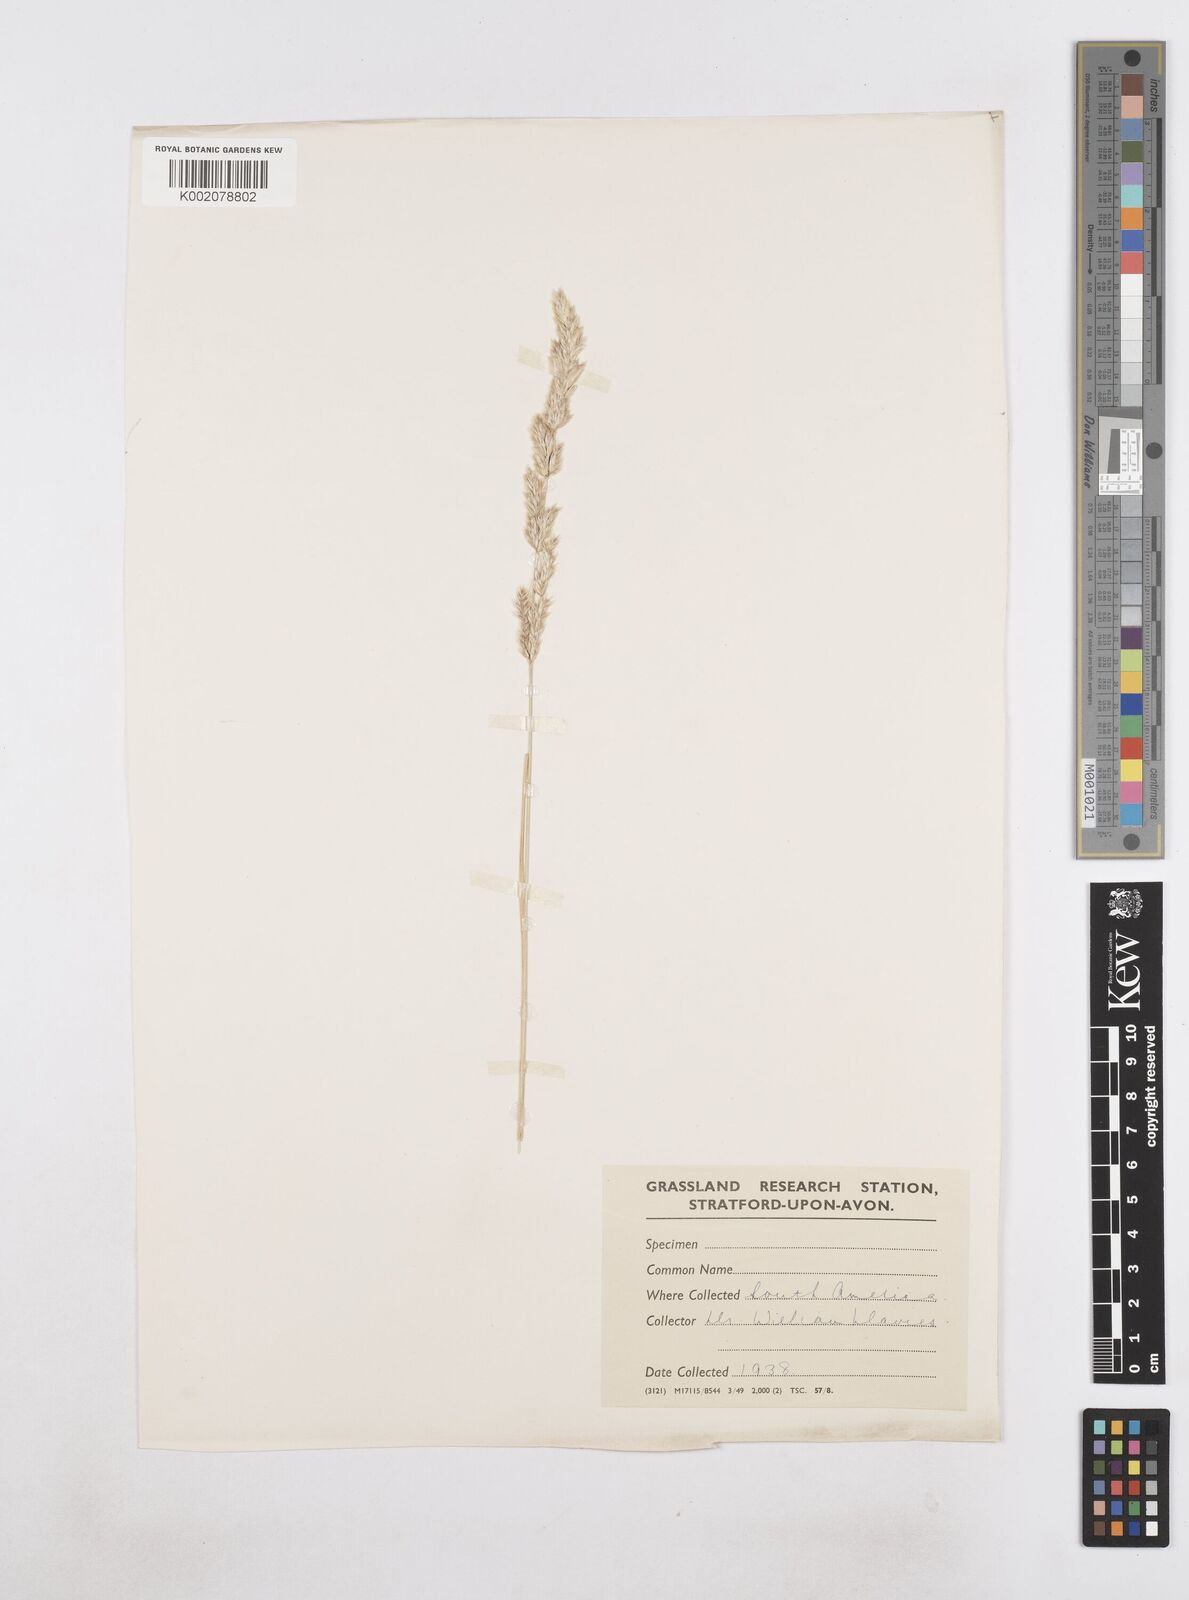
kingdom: Plantae
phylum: Tracheophyta
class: Liliopsida
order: Poales
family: Poaceae
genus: Poa
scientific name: Poa
